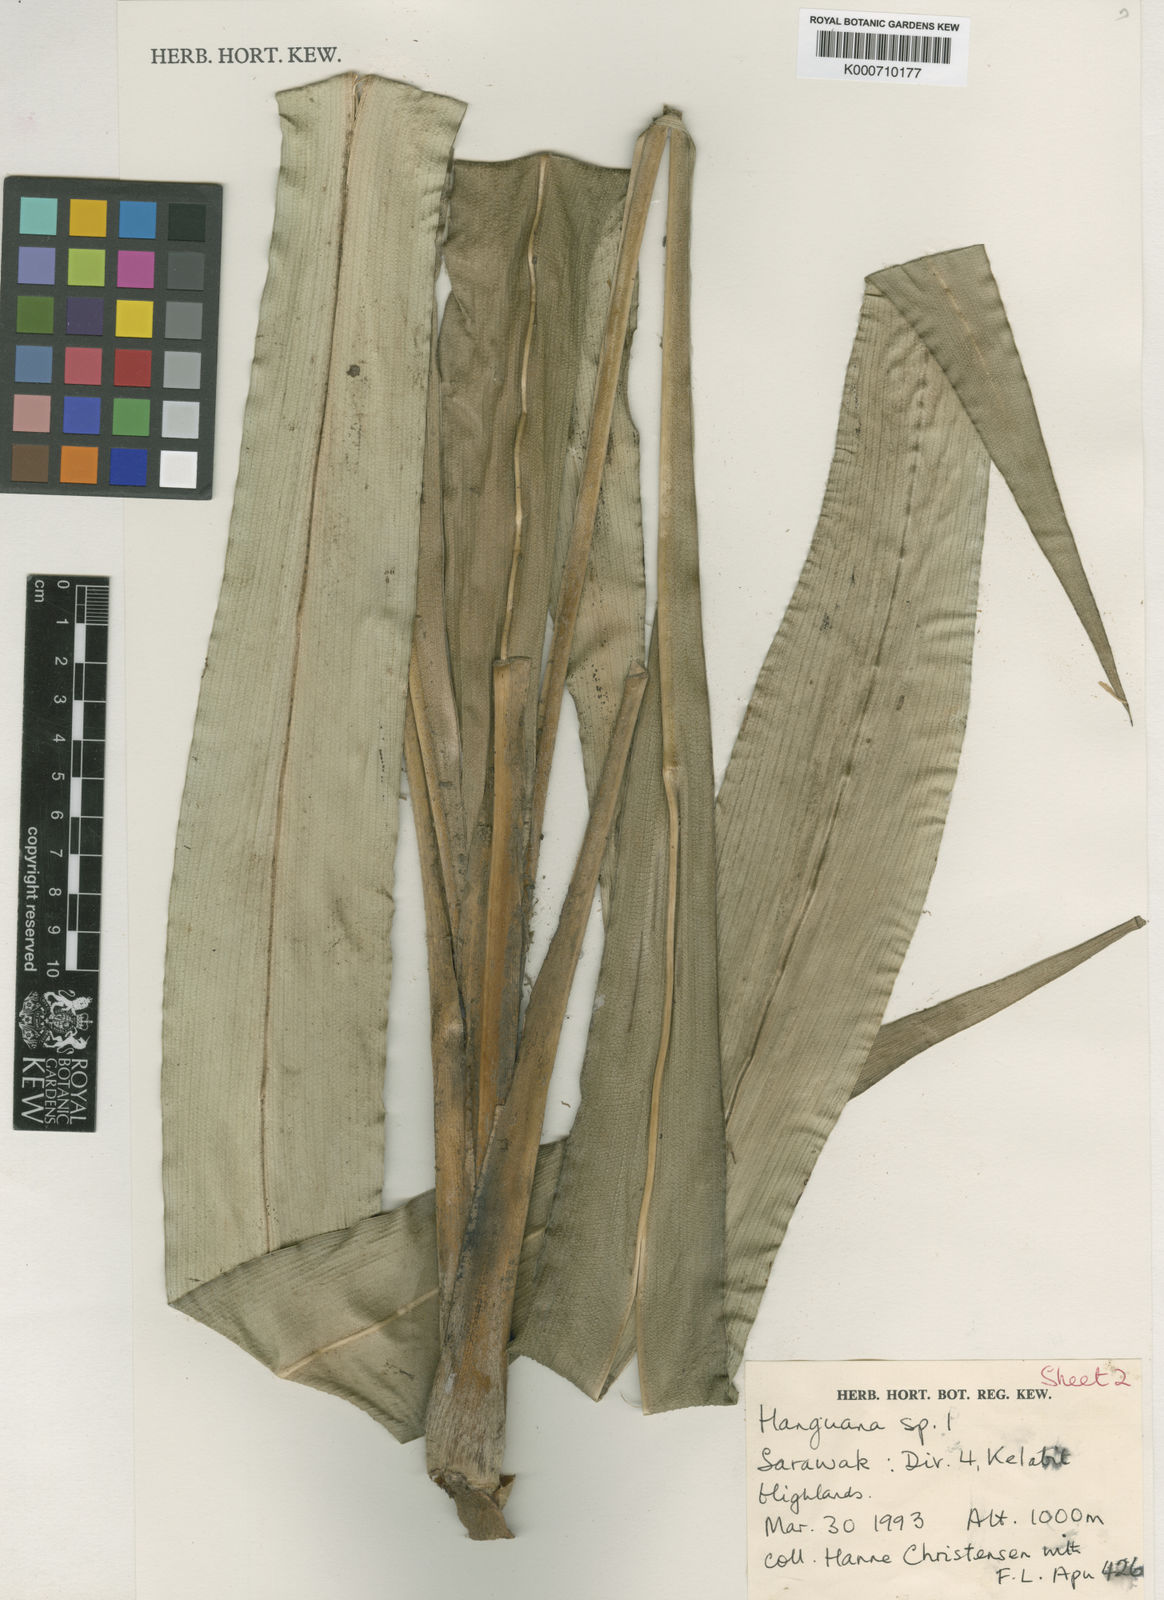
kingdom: Plantae
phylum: Tracheophyta
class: Liliopsida
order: Commelinales
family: Hanguanaceae
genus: Hanguana
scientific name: Hanguana
